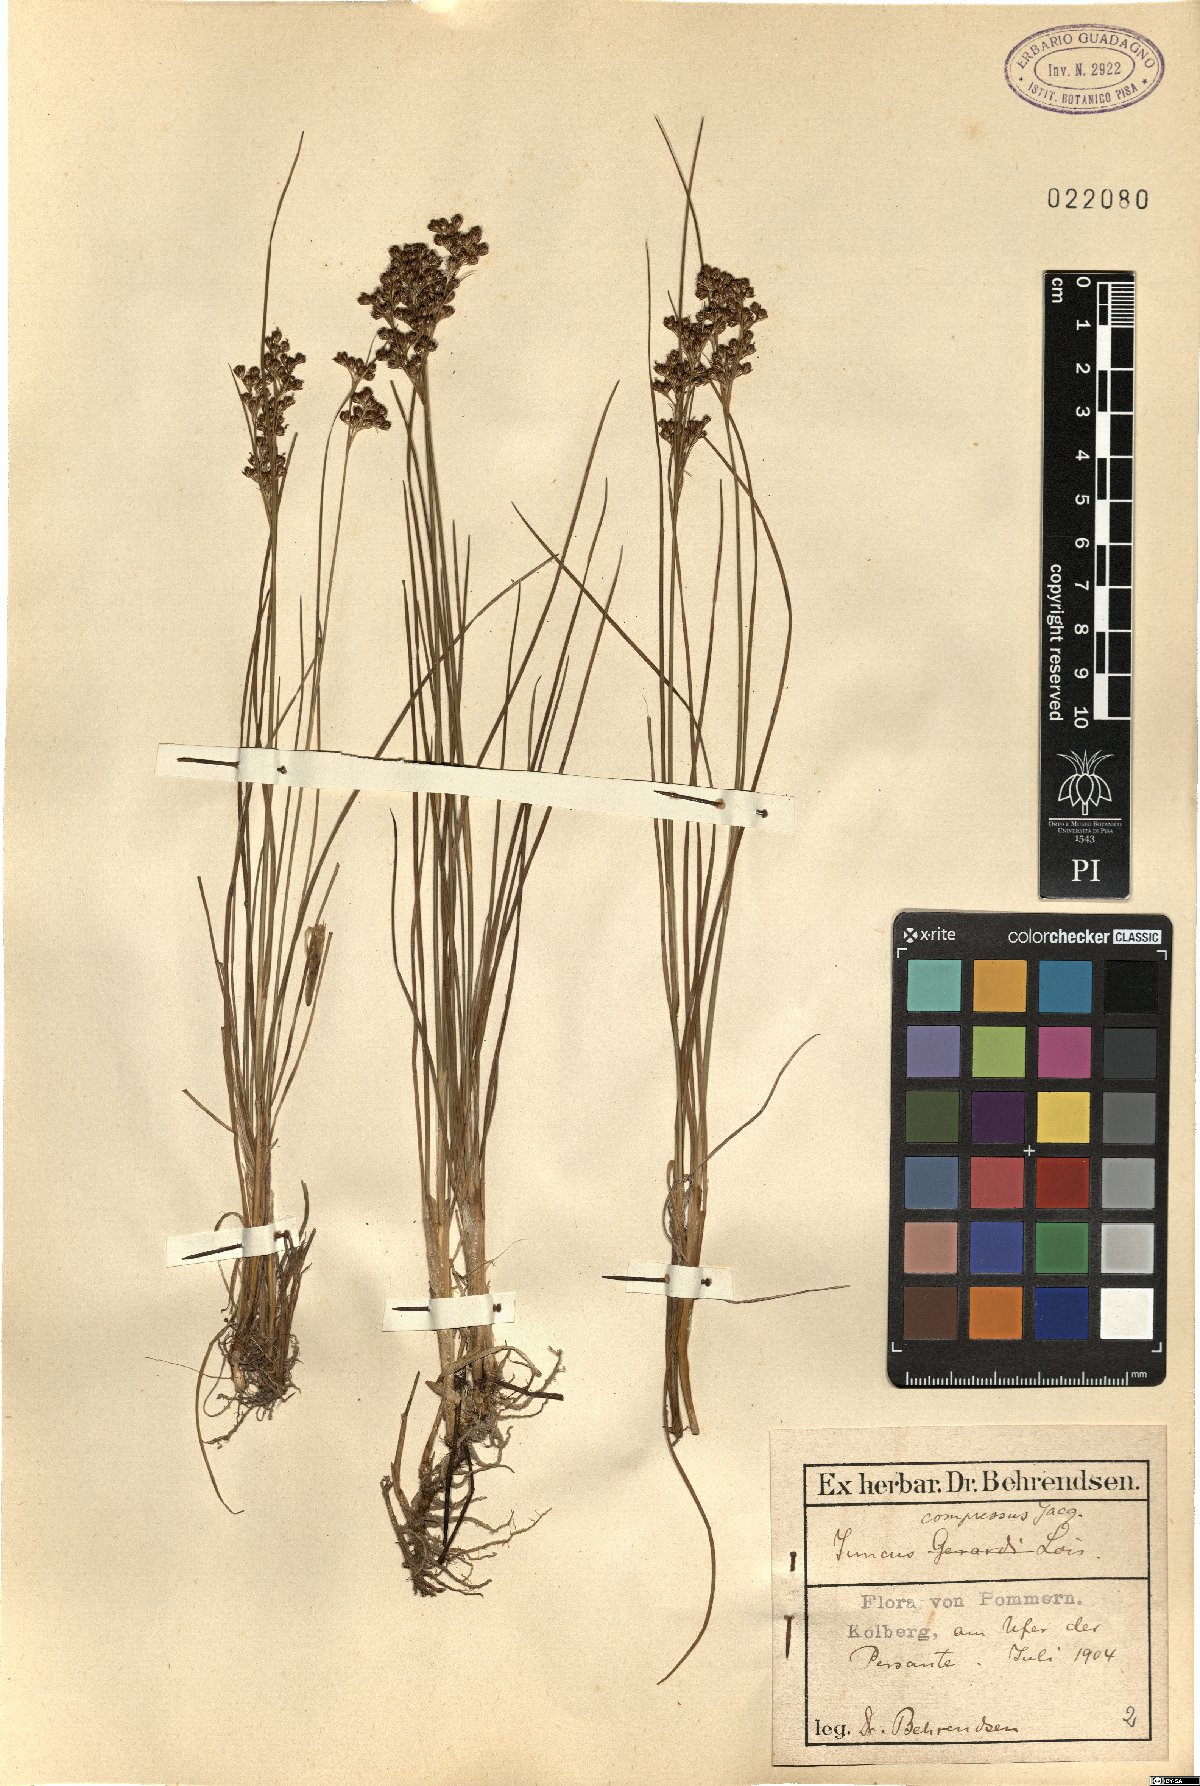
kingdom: Plantae
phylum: Tracheophyta
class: Liliopsida
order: Poales
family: Juncaceae
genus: Juncus
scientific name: Juncus compressus
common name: Round-fruited rush
